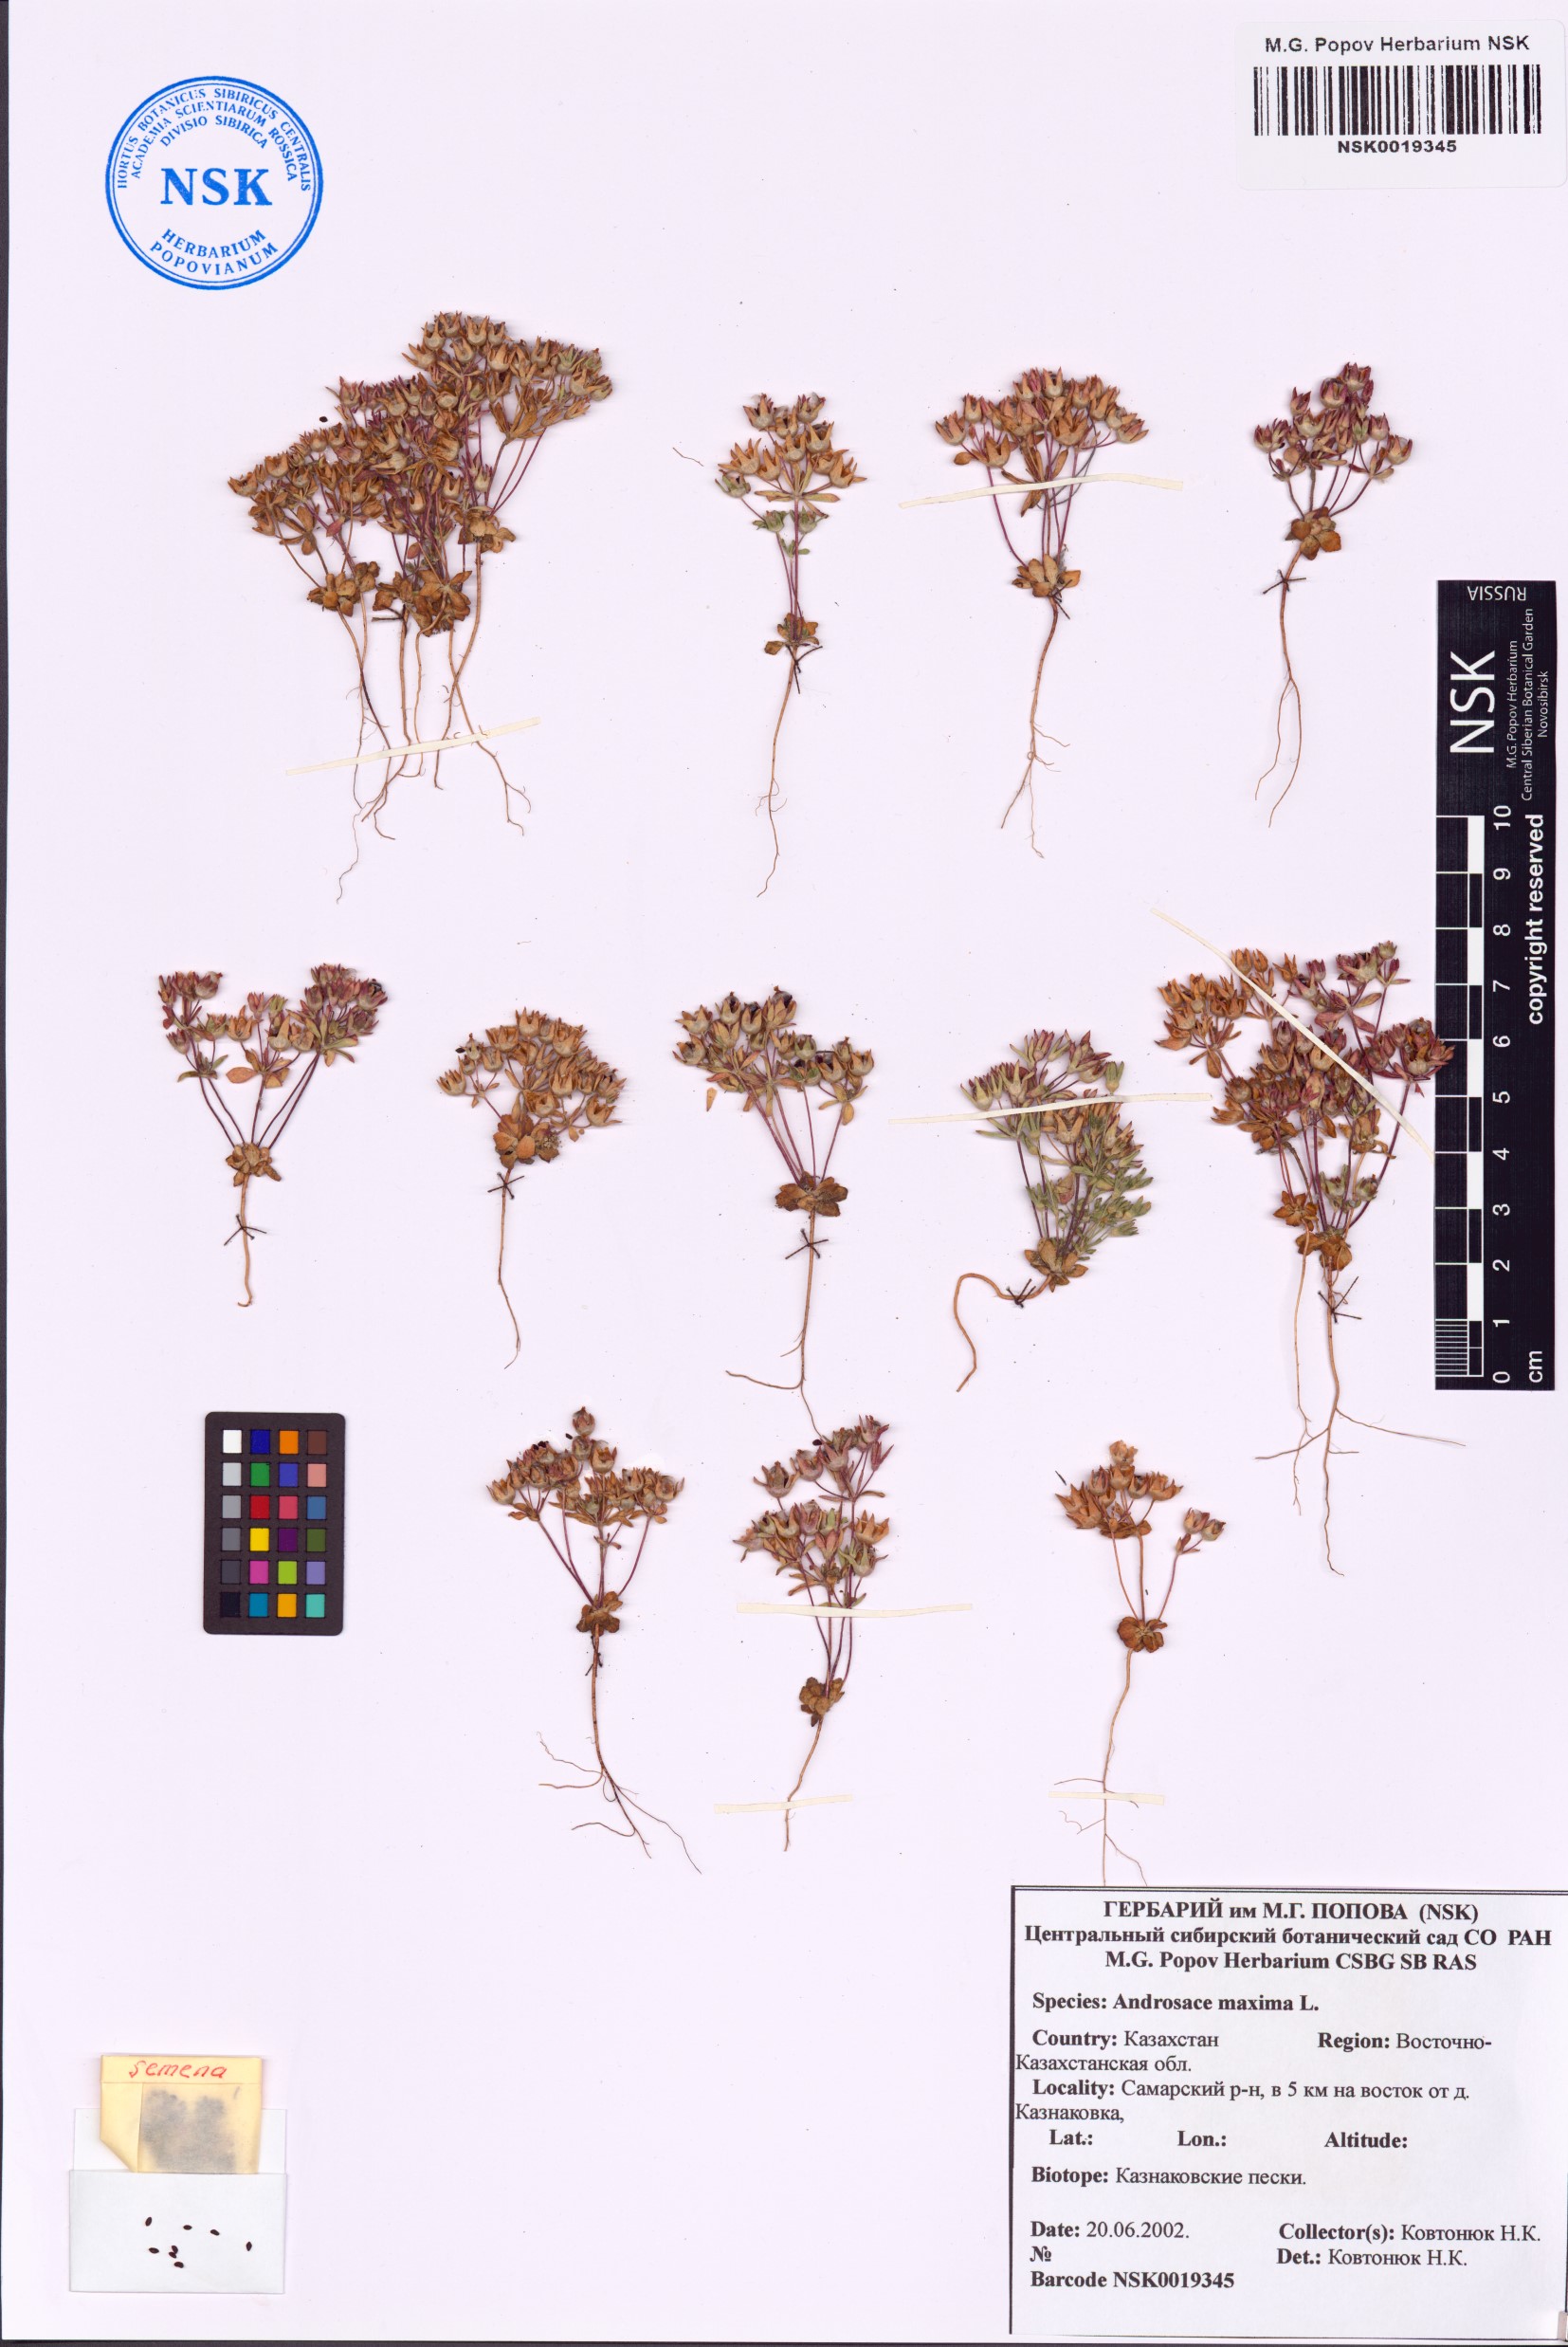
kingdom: Plantae
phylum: Tracheophyta
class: Magnoliopsida
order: Ericales
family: Primulaceae
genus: Androsace
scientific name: Androsace maxima
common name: Annual androsace
